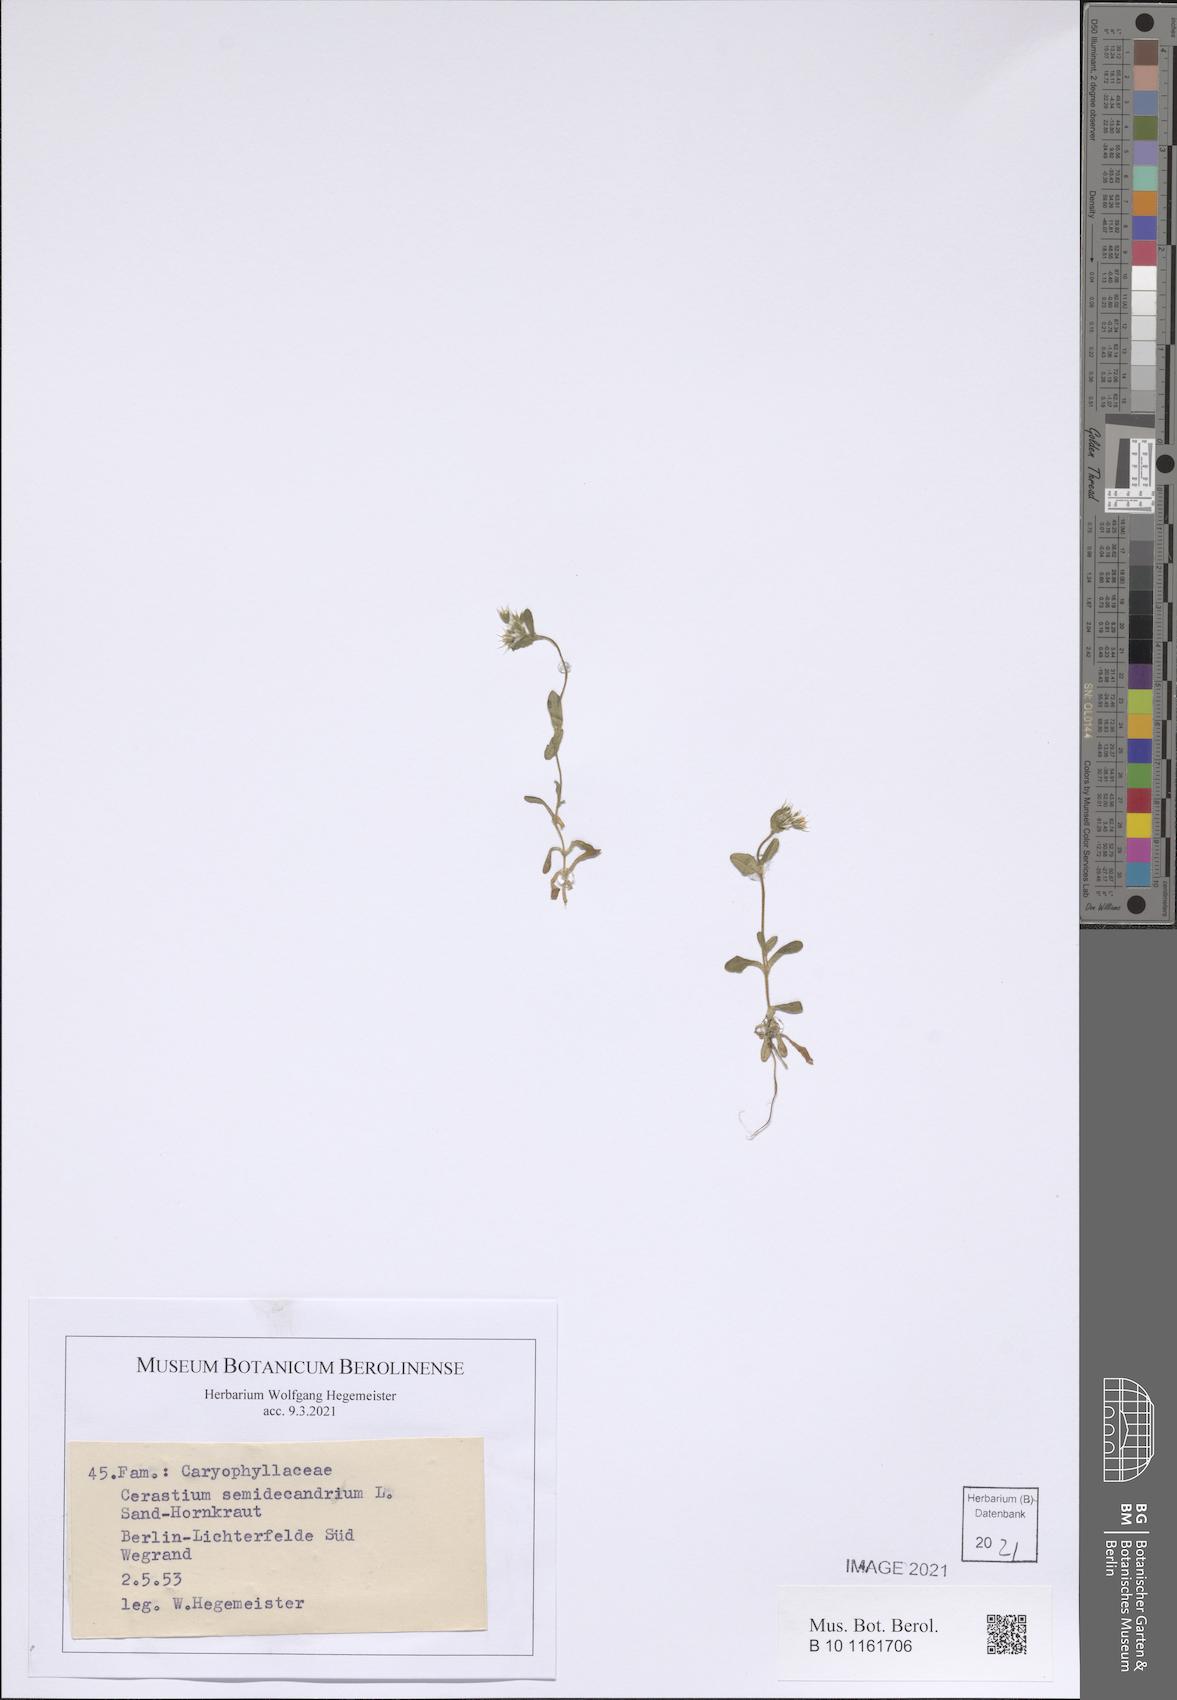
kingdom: Plantae
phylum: Tracheophyta
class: Magnoliopsida
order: Caryophyllales
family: Caryophyllaceae
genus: Cerastium
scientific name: Cerastium semidecandrum
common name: Little mouse-ear
